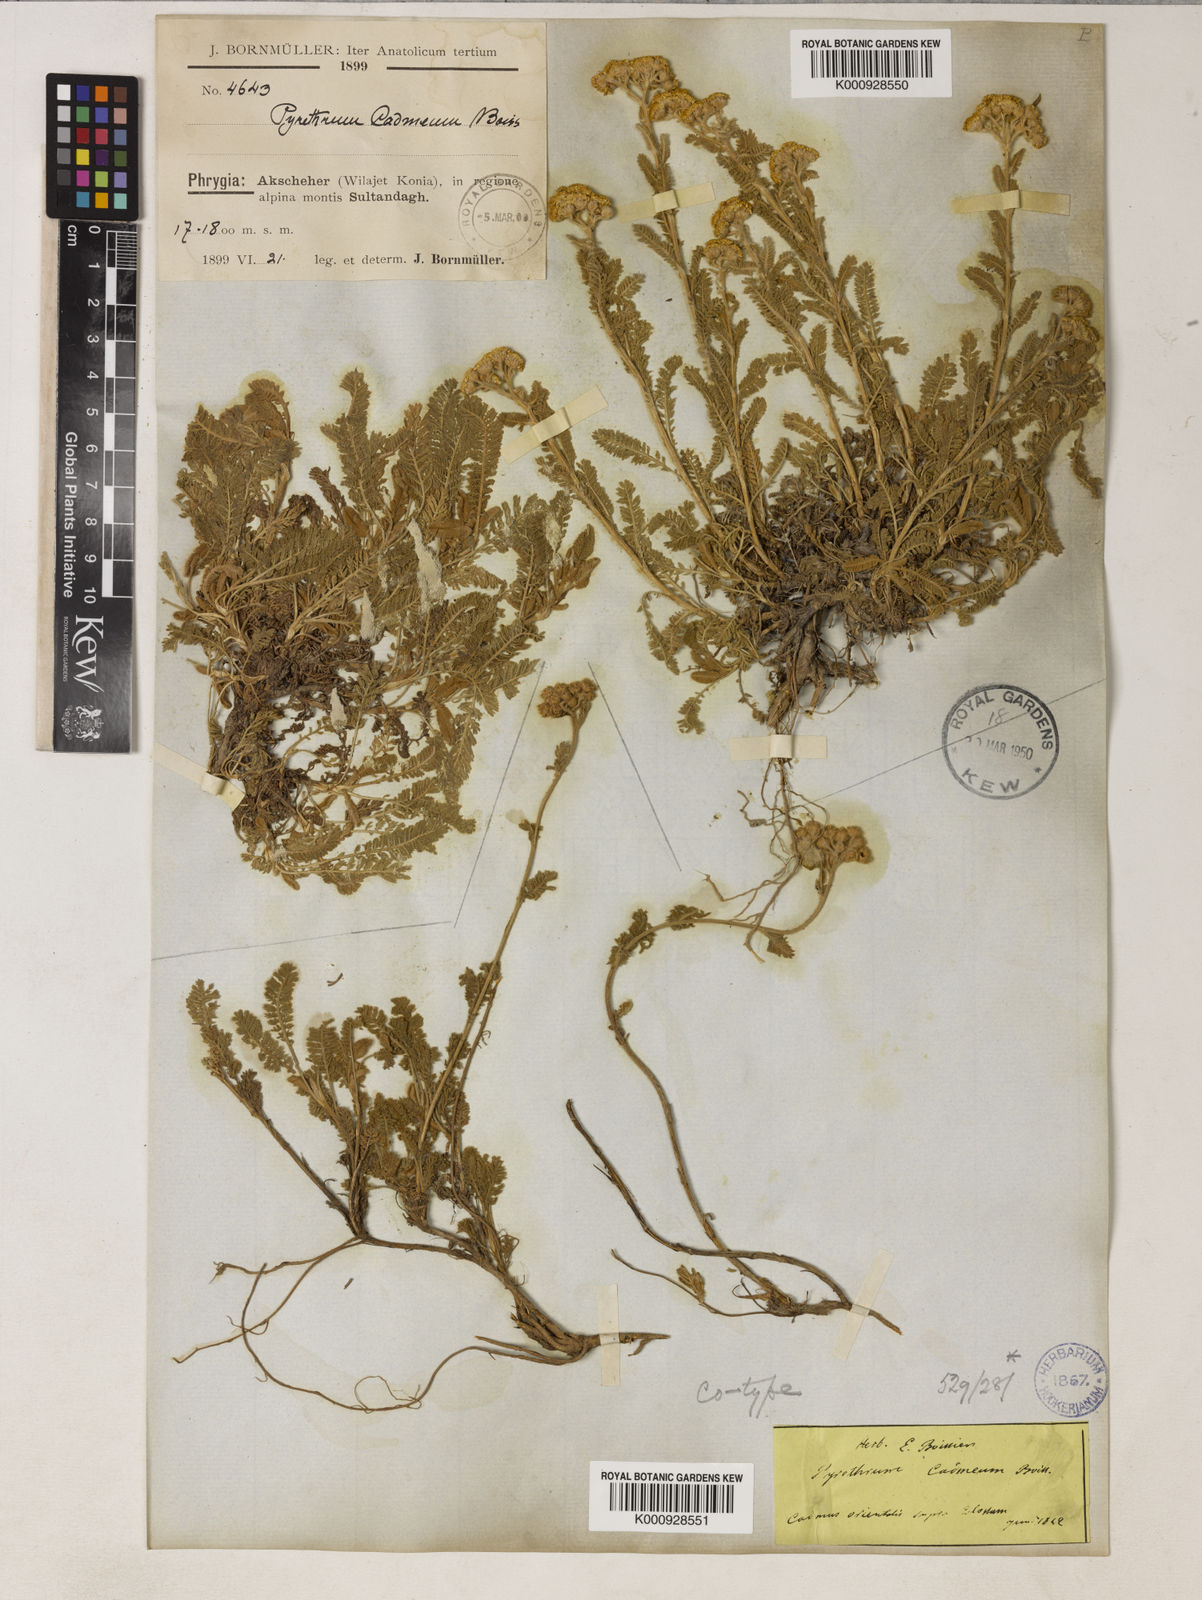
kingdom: Plantae
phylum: Tracheophyta
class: Magnoliopsida
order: Asterales
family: Asteraceae
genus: Tanacetum
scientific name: Tanacetum cadmeum
